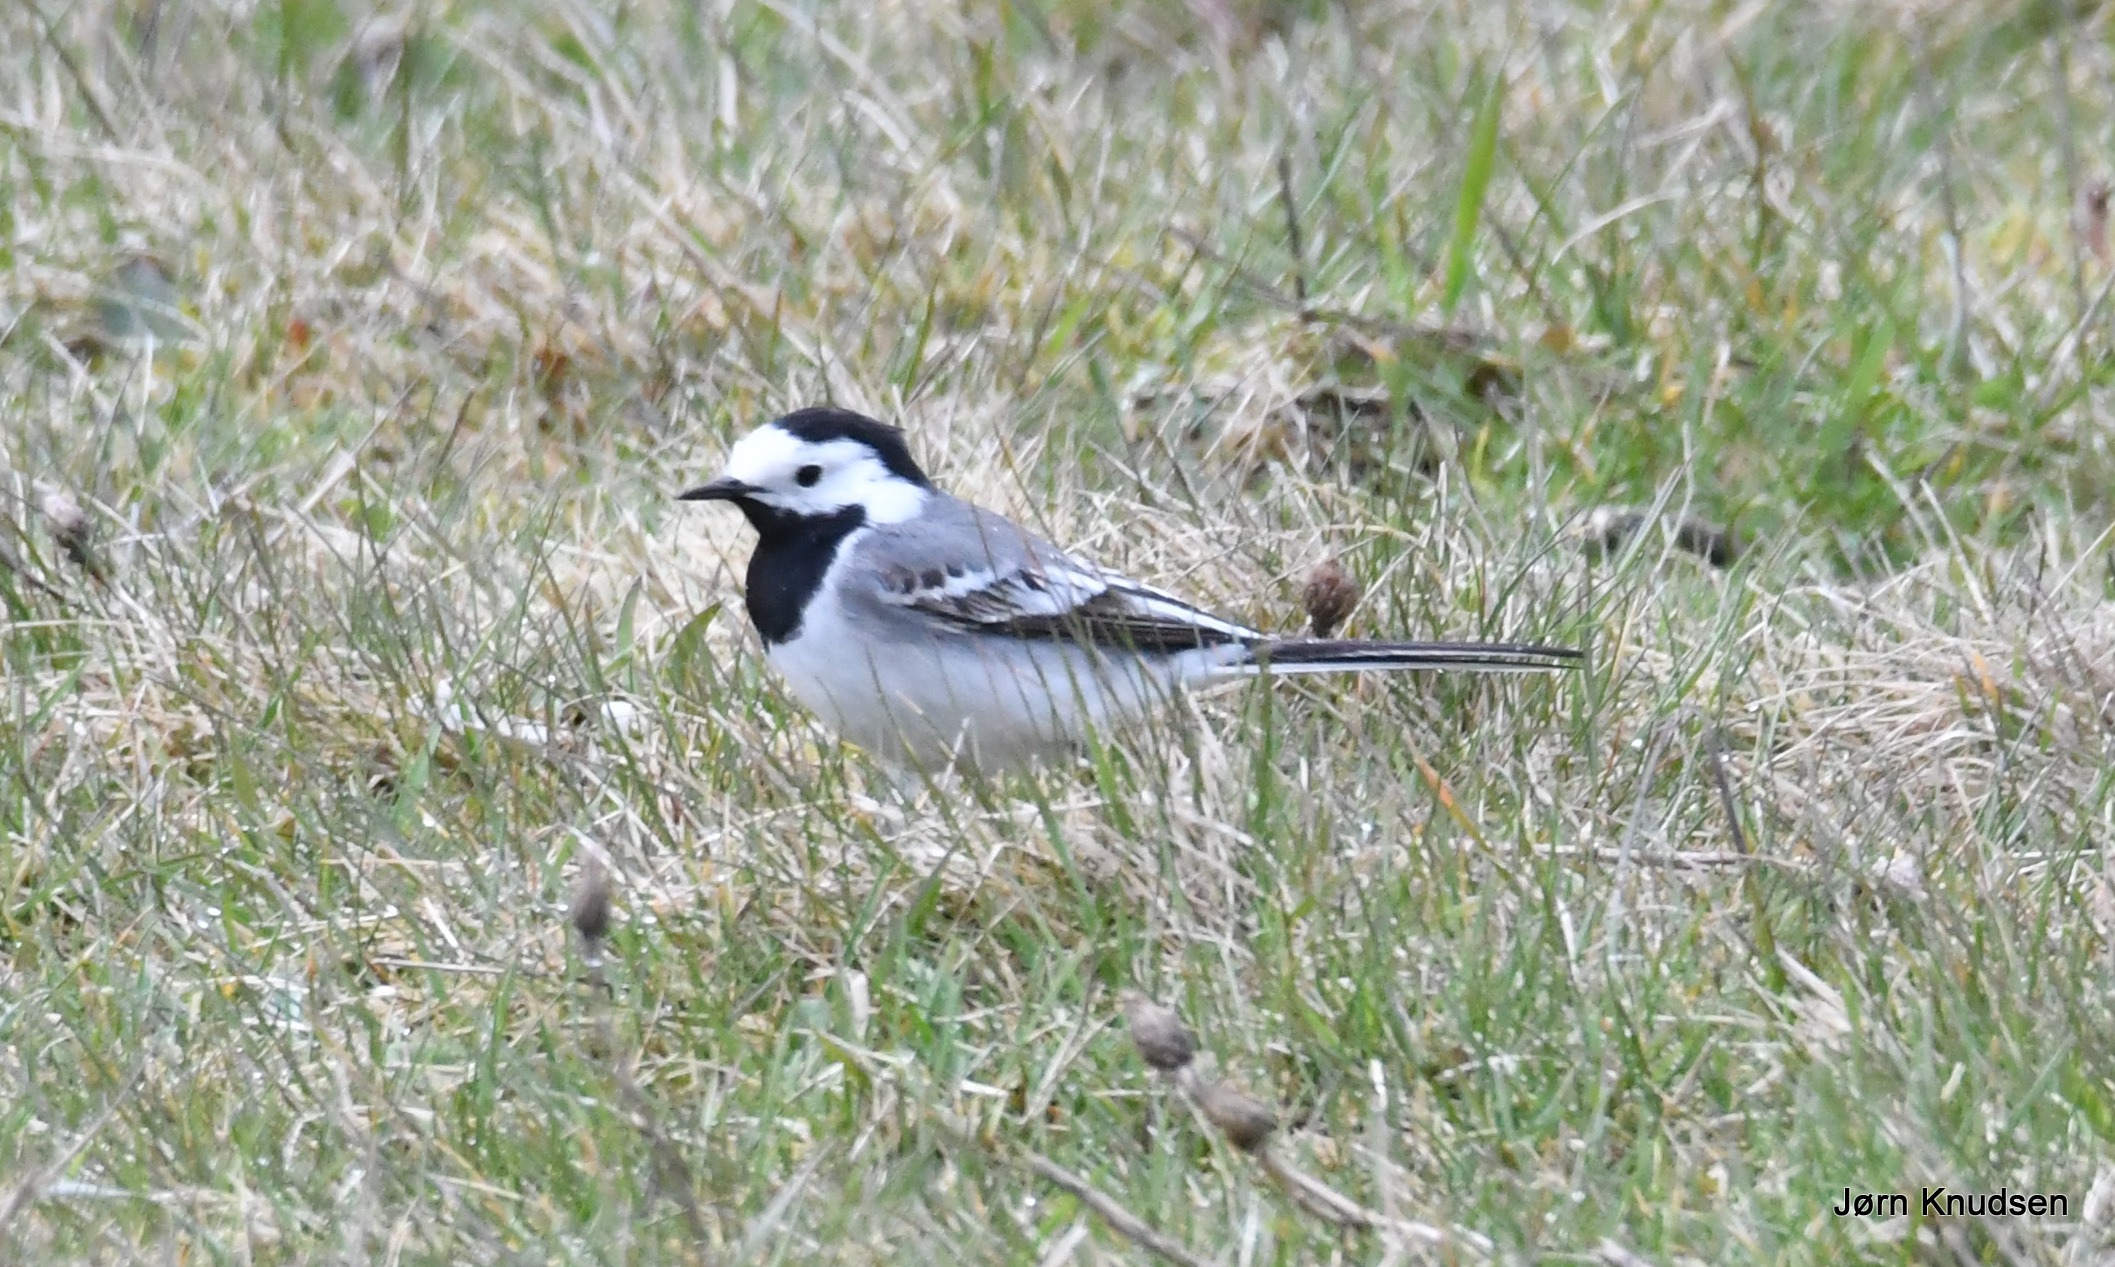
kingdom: Animalia
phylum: Chordata
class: Aves
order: Passeriformes
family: Motacillidae
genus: Motacilla
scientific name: Motacilla alba
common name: Hvid vipstjert
